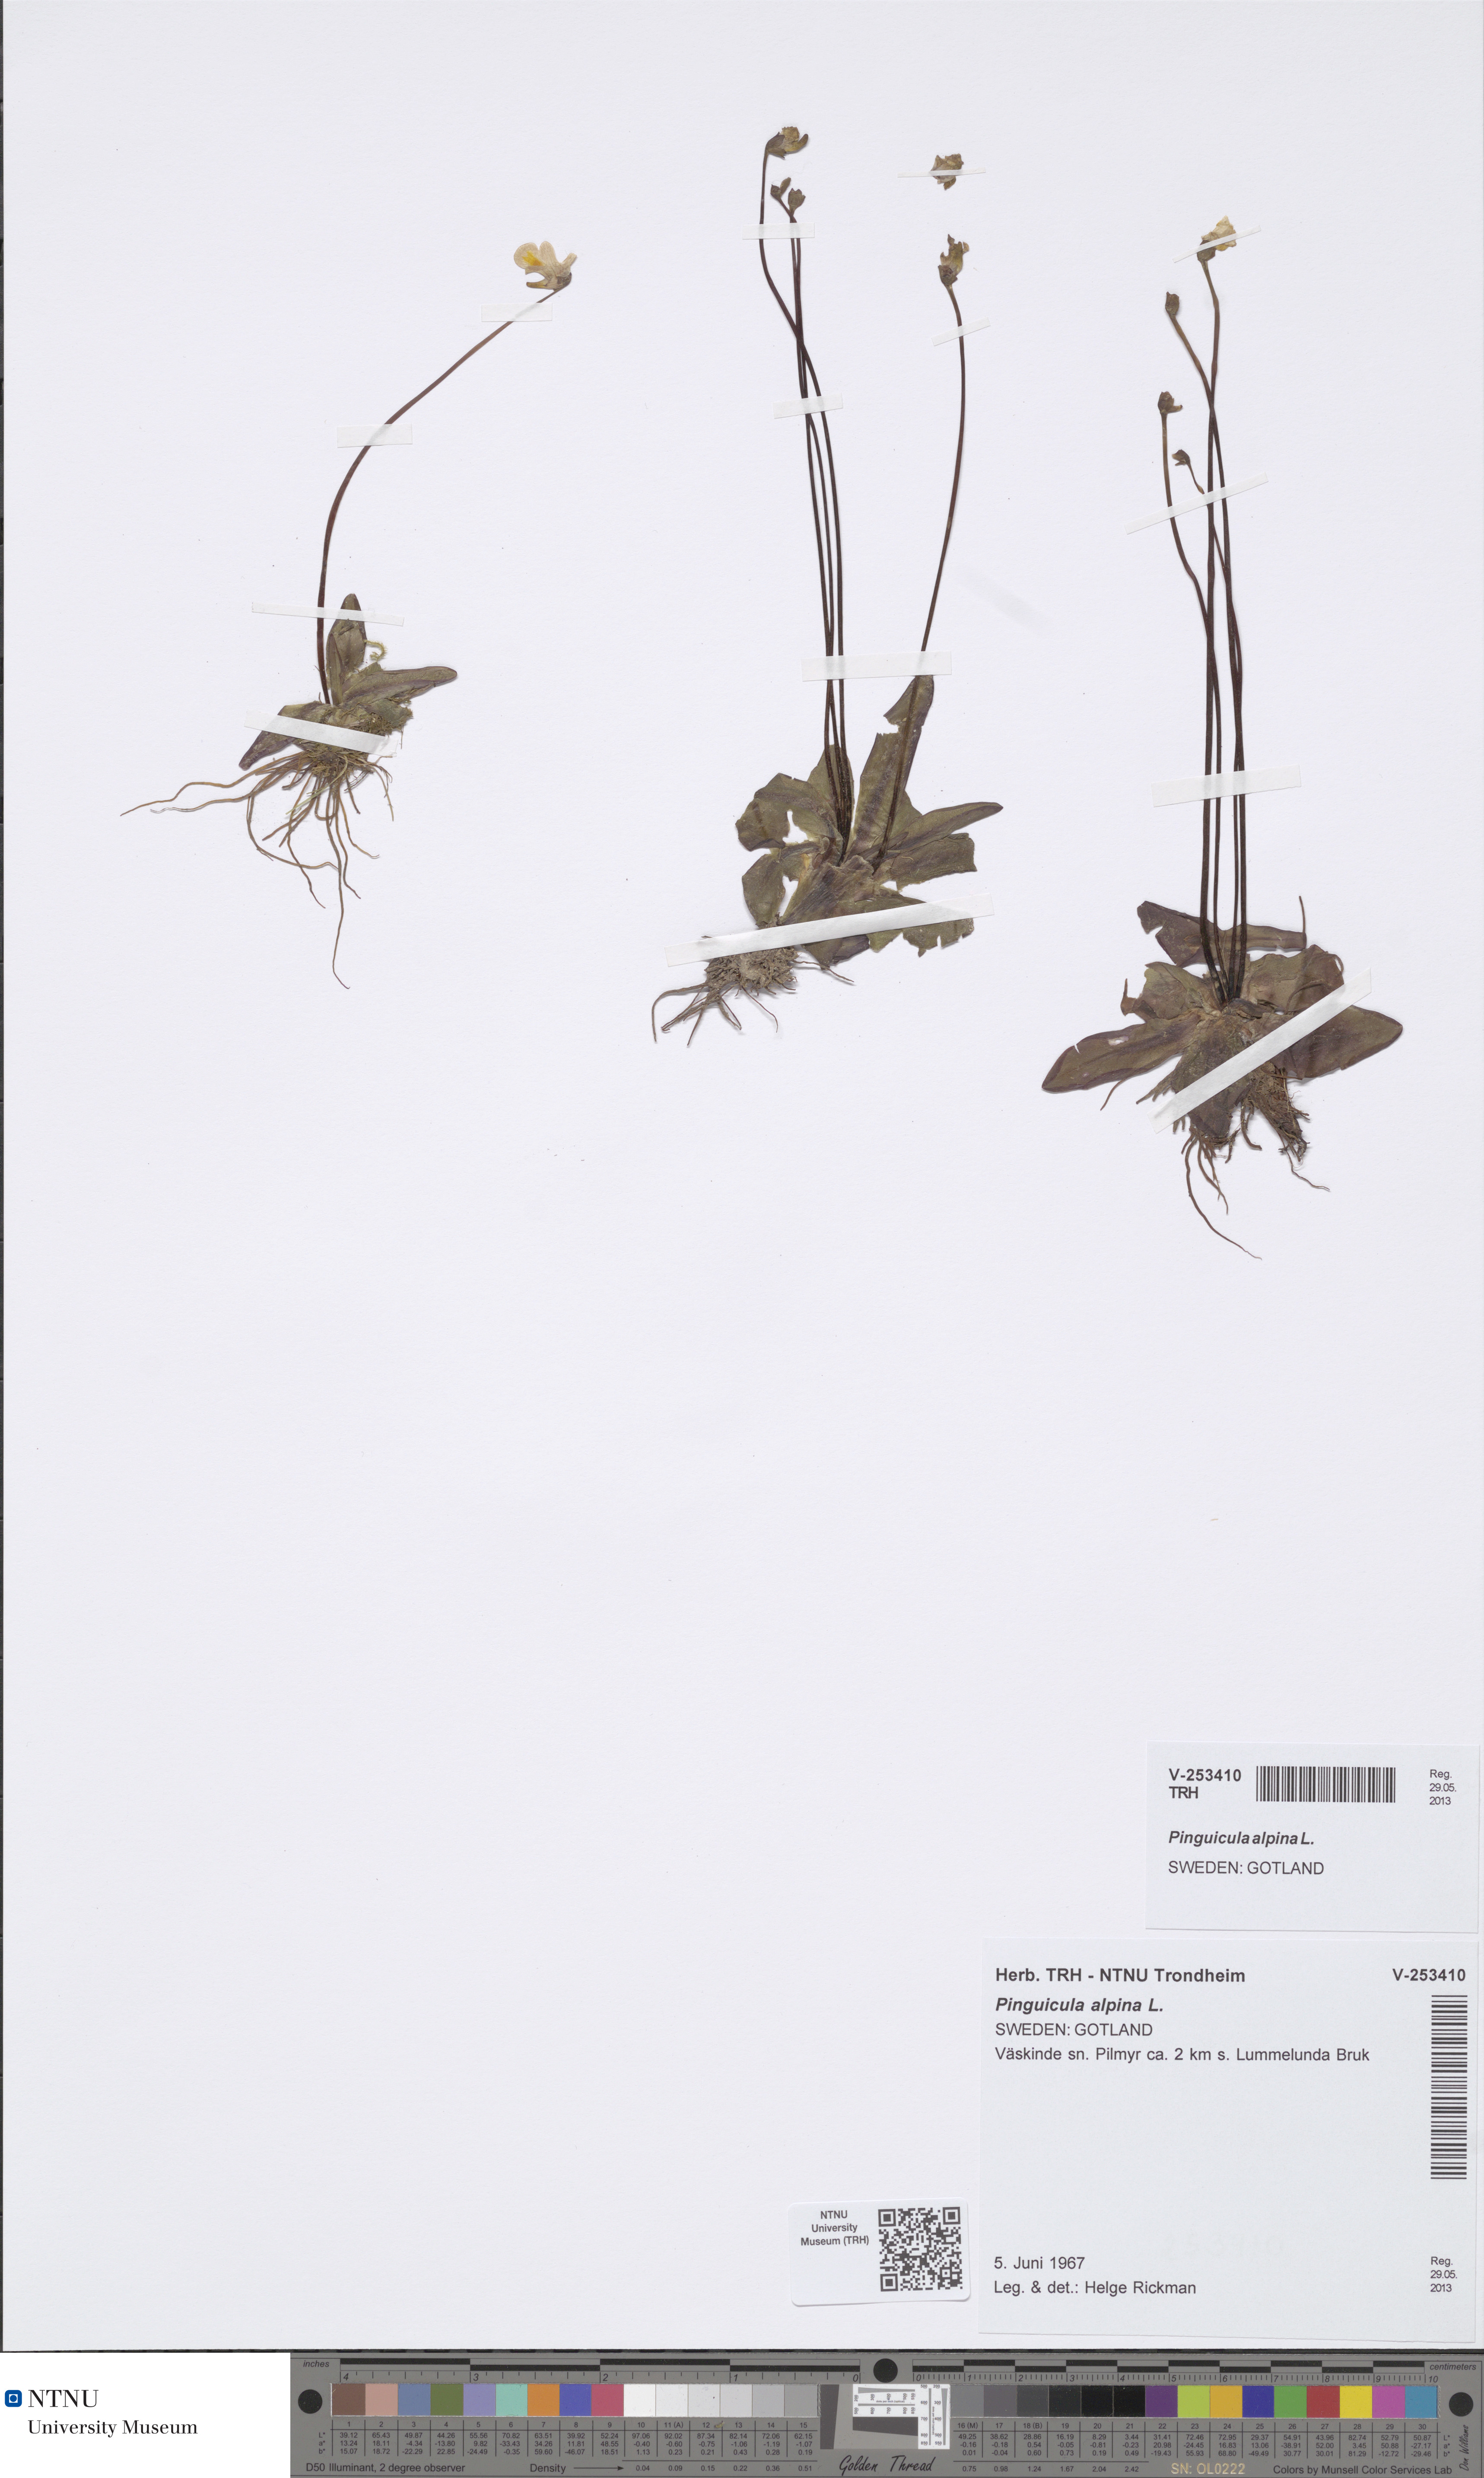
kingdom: Plantae
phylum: Tracheophyta
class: Magnoliopsida
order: Lamiales
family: Lentibulariaceae
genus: Pinguicula
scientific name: Pinguicula alpina
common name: Alpine butterwort
